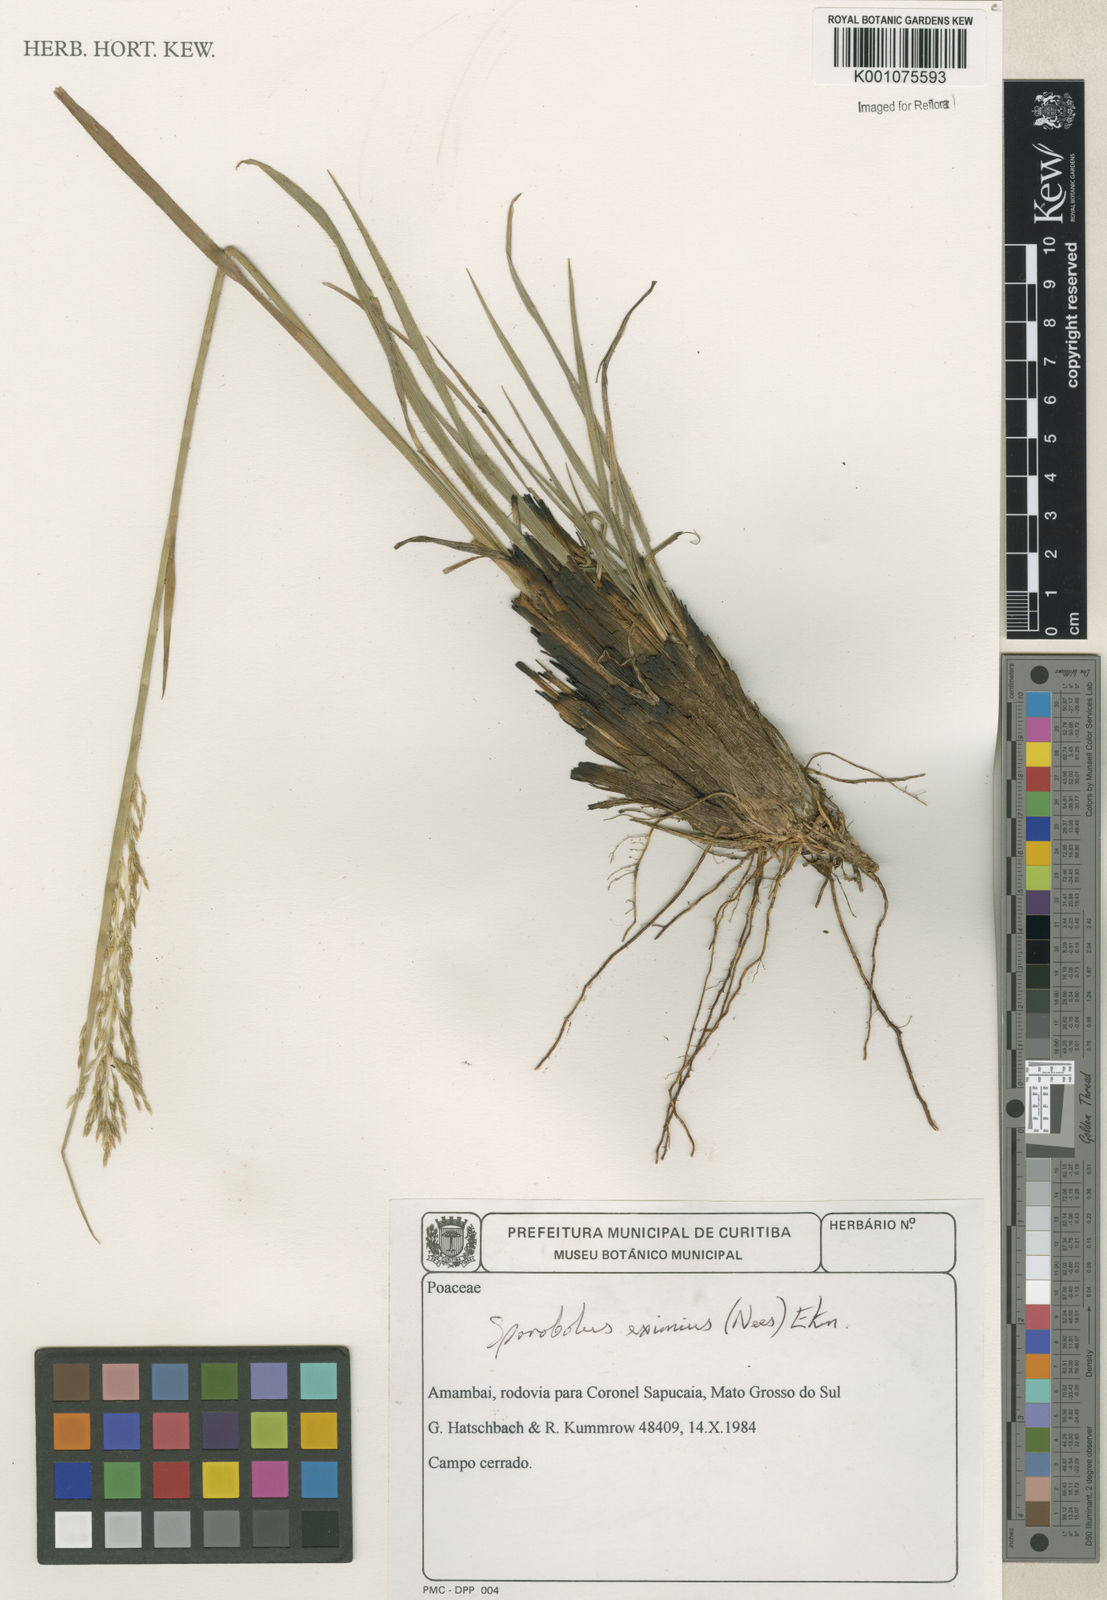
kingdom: Plantae
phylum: Tracheophyta
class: Liliopsida
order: Poales
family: Poaceae
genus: Sporobolus
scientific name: Sporobolus eximius
